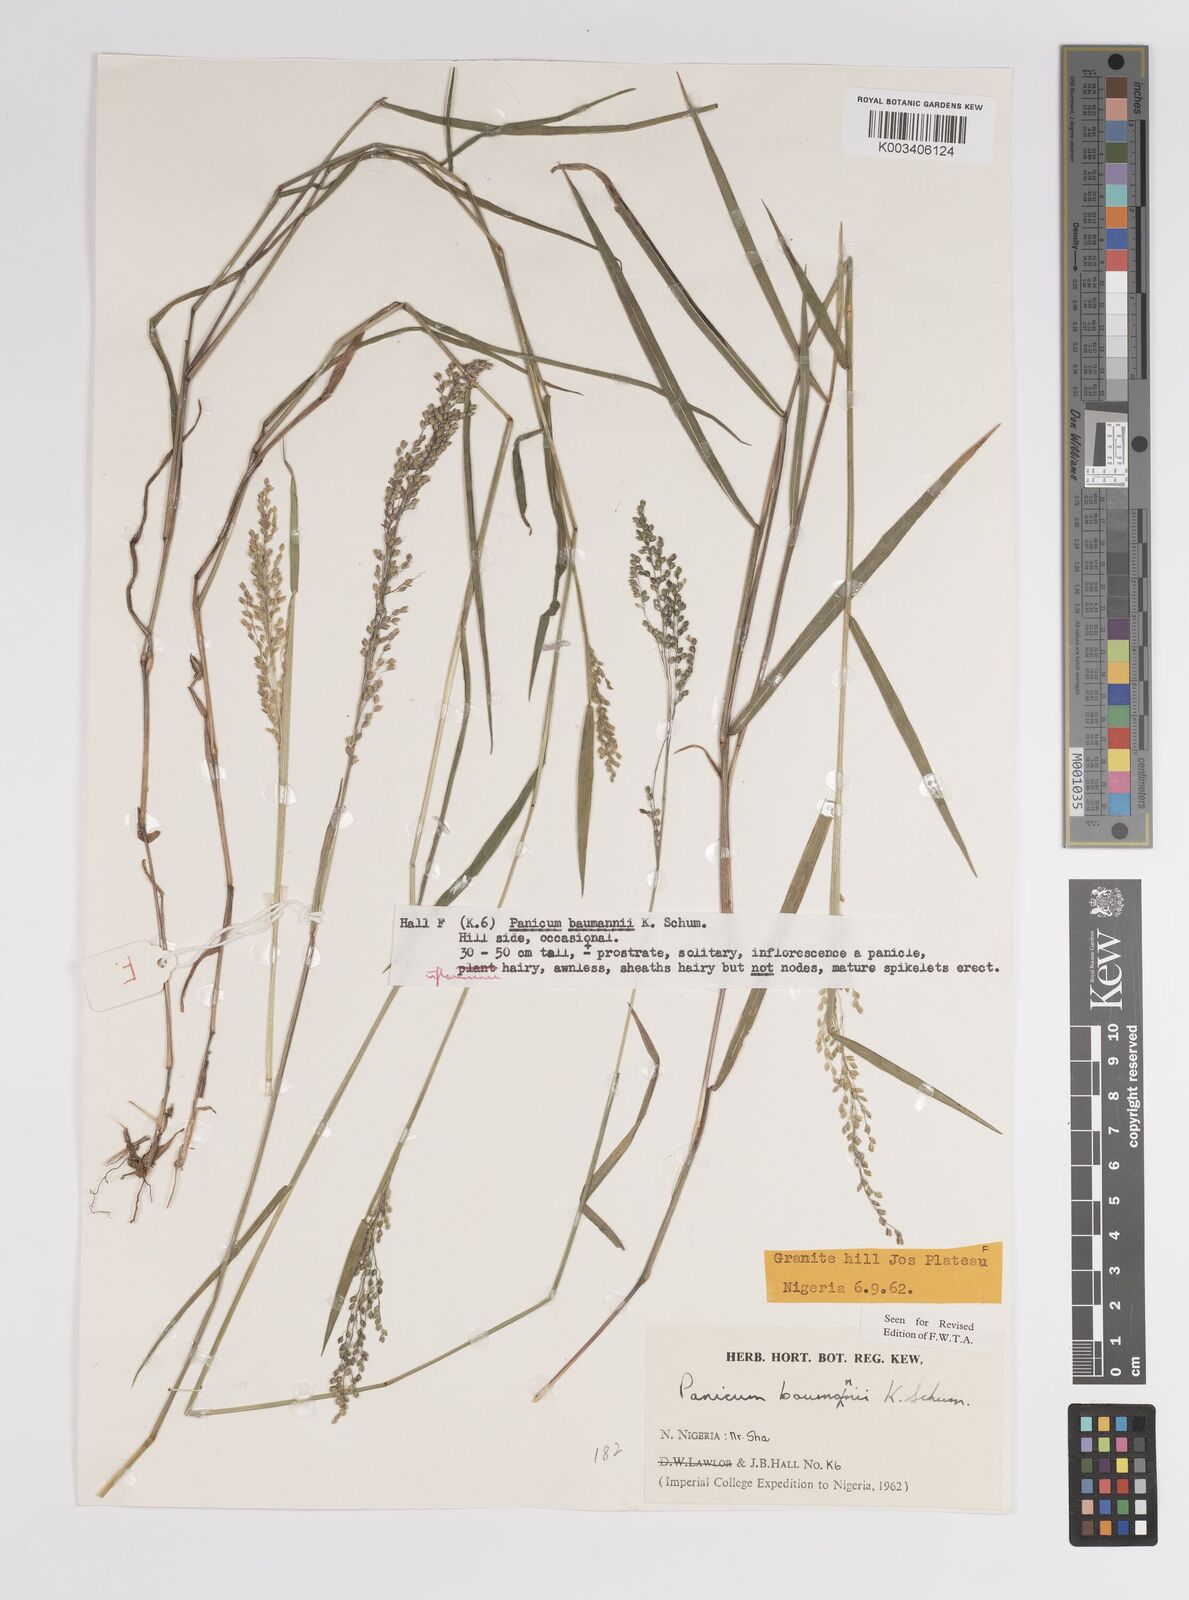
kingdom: Plantae
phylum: Tracheophyta
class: Liliopsida
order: Poales
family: Poaceae
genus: Trichanthecium
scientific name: Trichanthecium nervatum
